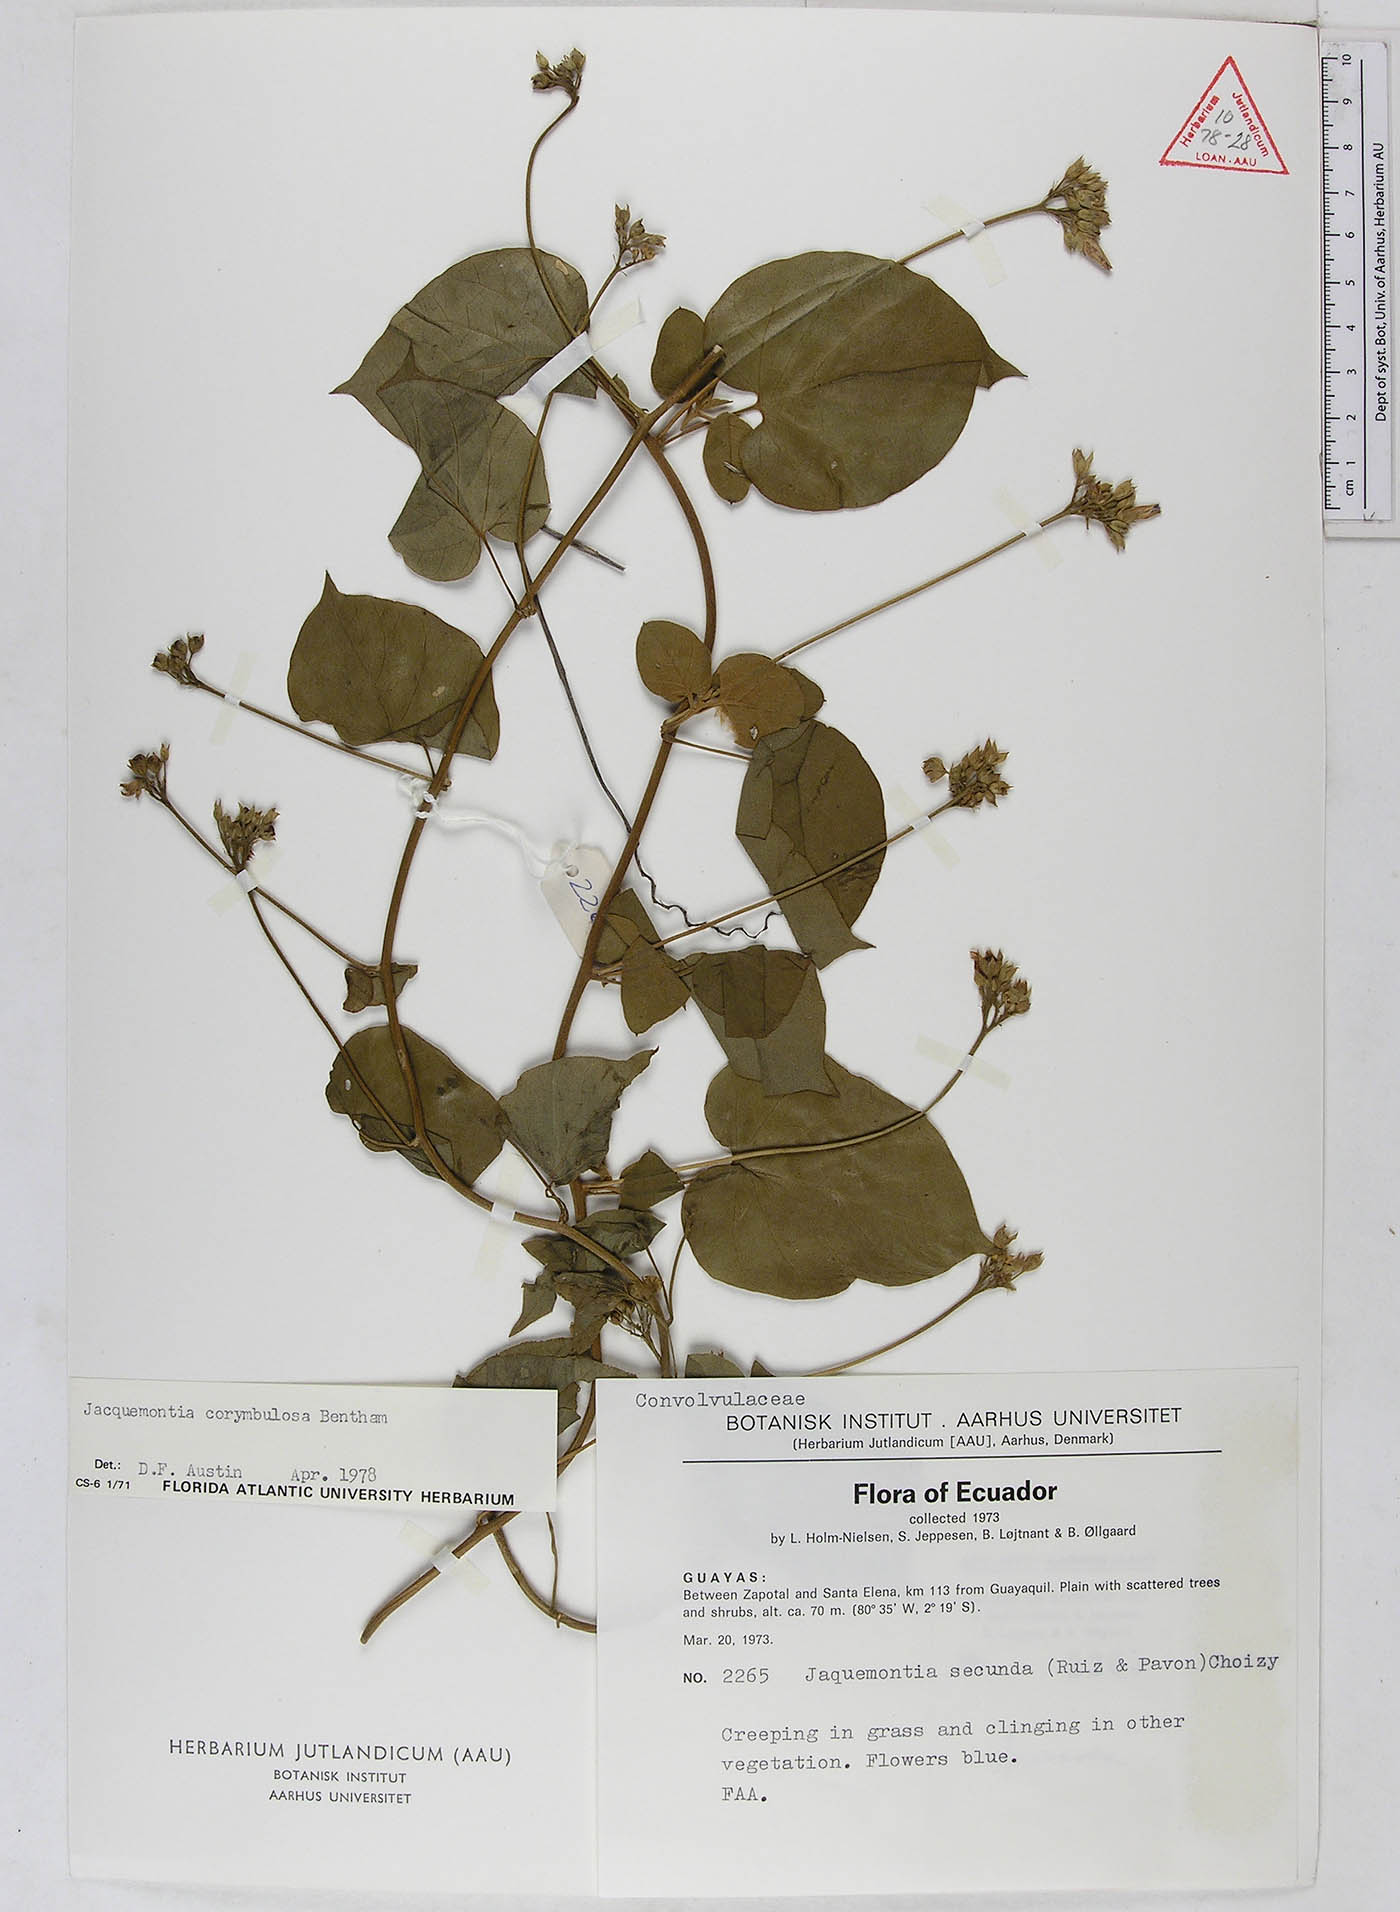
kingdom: Plantae
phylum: Tracheophyta
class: Magnoliopsida
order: Solanales
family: Convolvulaceae
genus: Jacquemontia
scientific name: Jacquemontia corymbulosa
